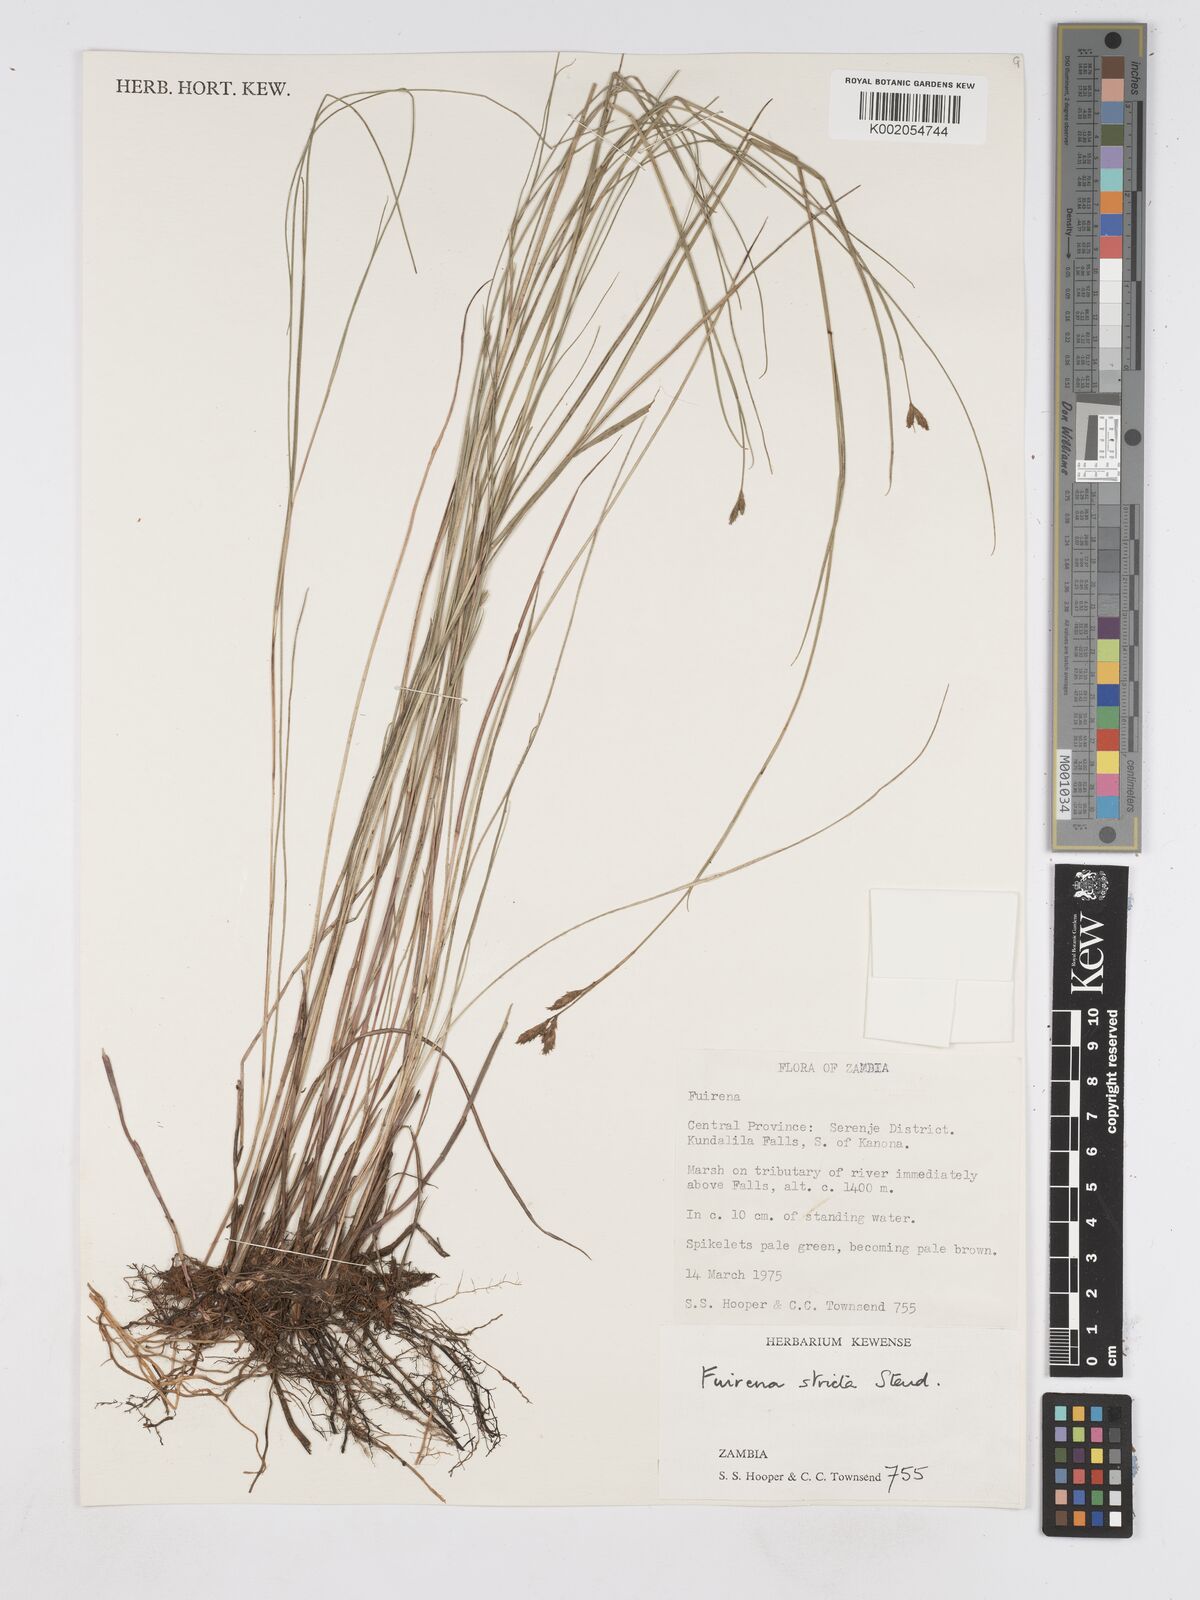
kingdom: Plantae
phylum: Tracheophyta
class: Liliopsida
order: Poales
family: Cyperaceae
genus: Fuirena
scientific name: Fuirena stricta
